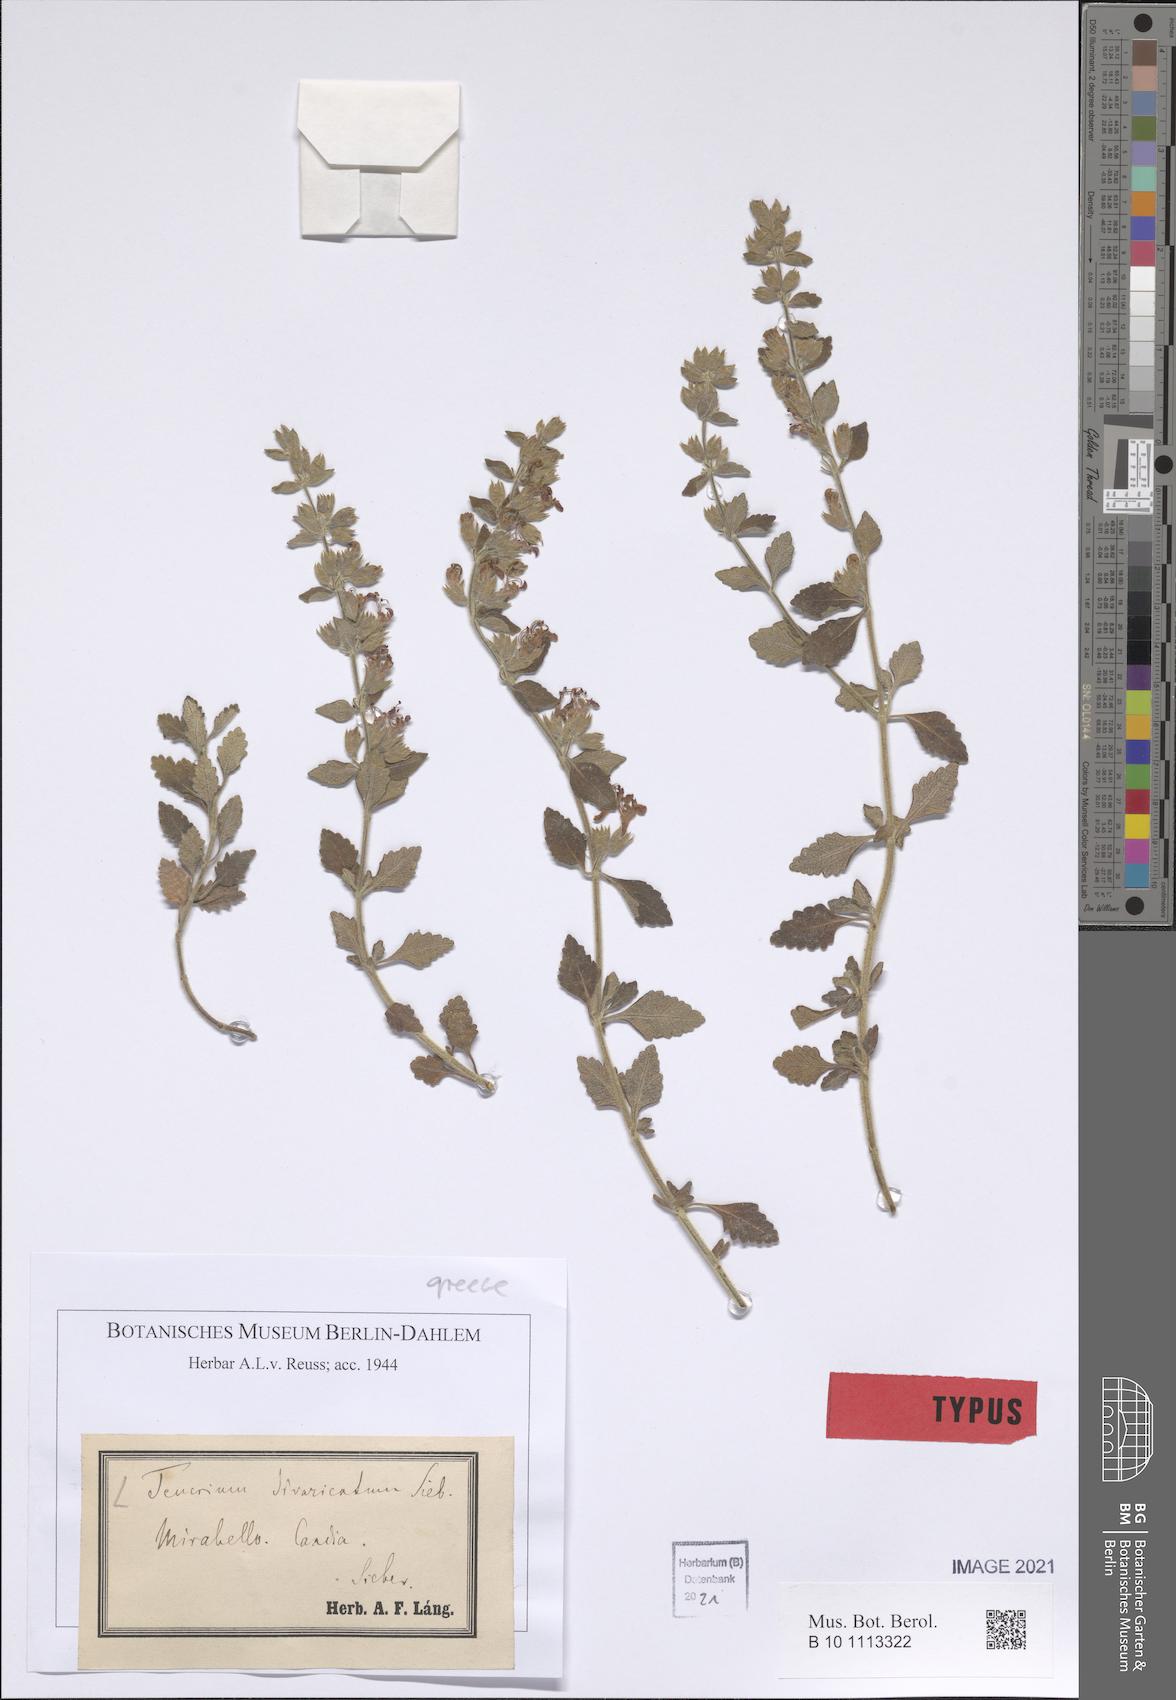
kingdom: Plantae
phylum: Tracheophyta
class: Magnoliopsida
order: Lamiales
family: Lamiaceae
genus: Teucrium
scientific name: Teucrium divaricatum
